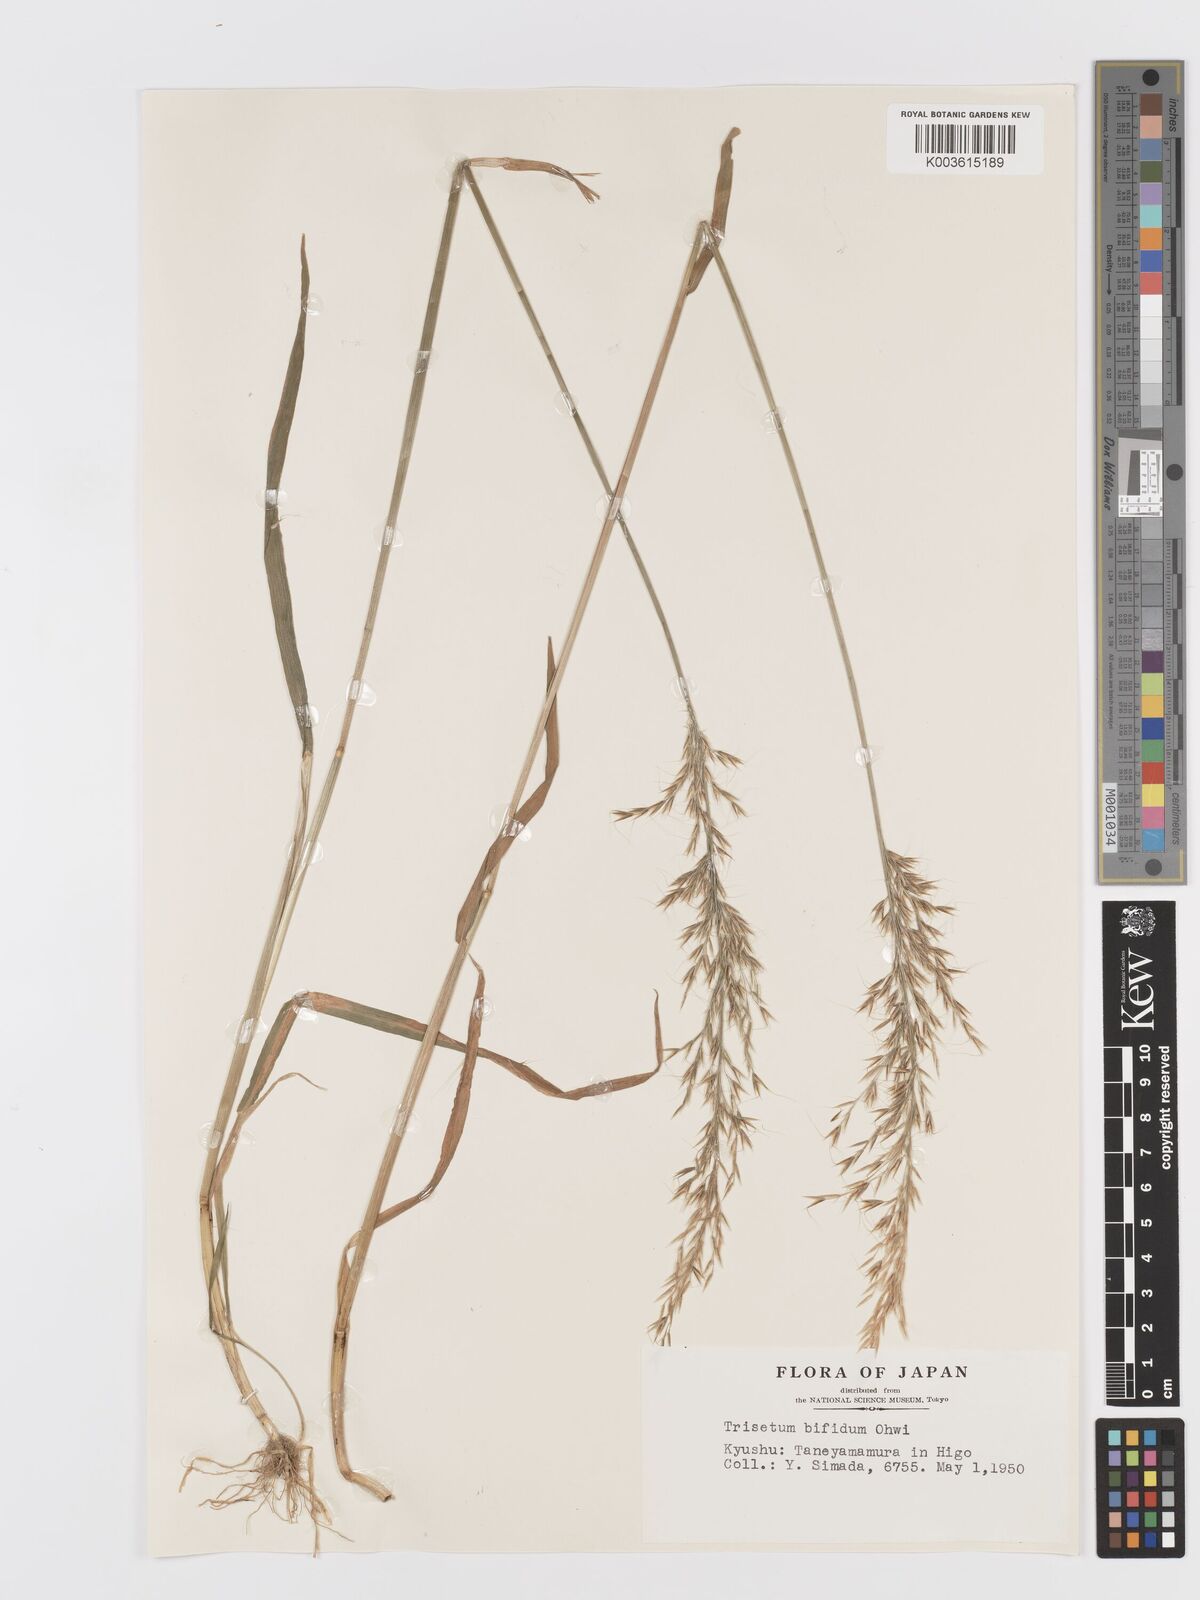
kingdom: Plantae
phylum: Tracheophyta
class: Liliopsida
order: Poales
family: Poaceae
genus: Sibirotrisetum
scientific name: Sibirotrisetum bifidum
